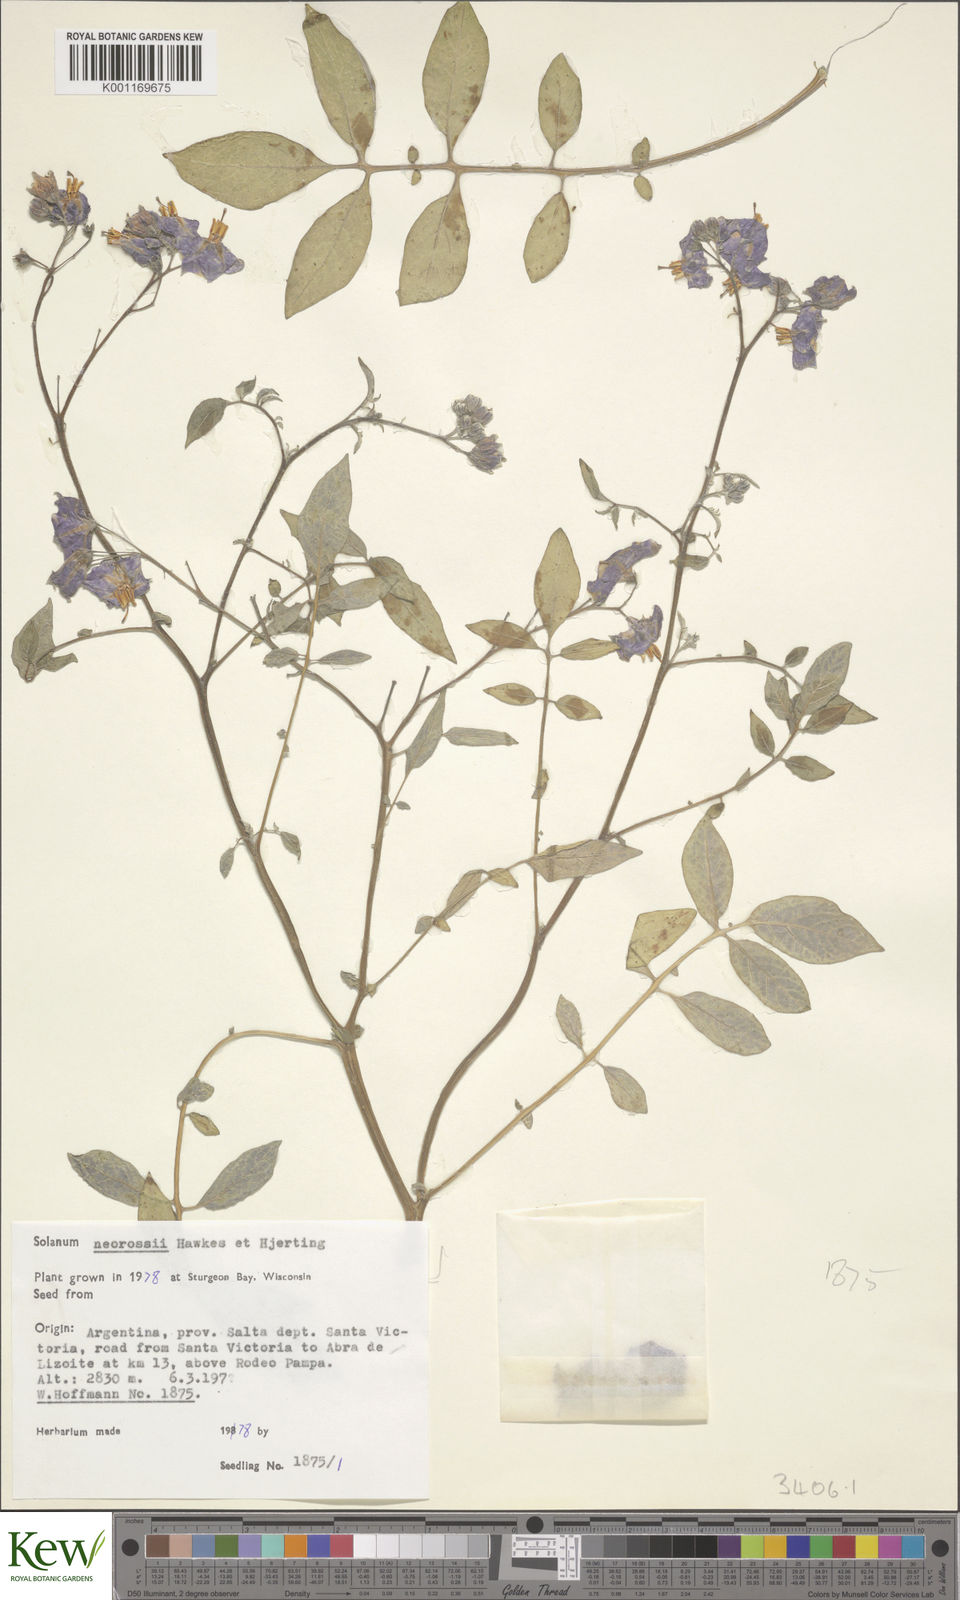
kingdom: Plantae
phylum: Tracheophyta
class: Magnoliopsida
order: Solanales
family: Solanaceae
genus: Solanum
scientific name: Solanum neorossii
